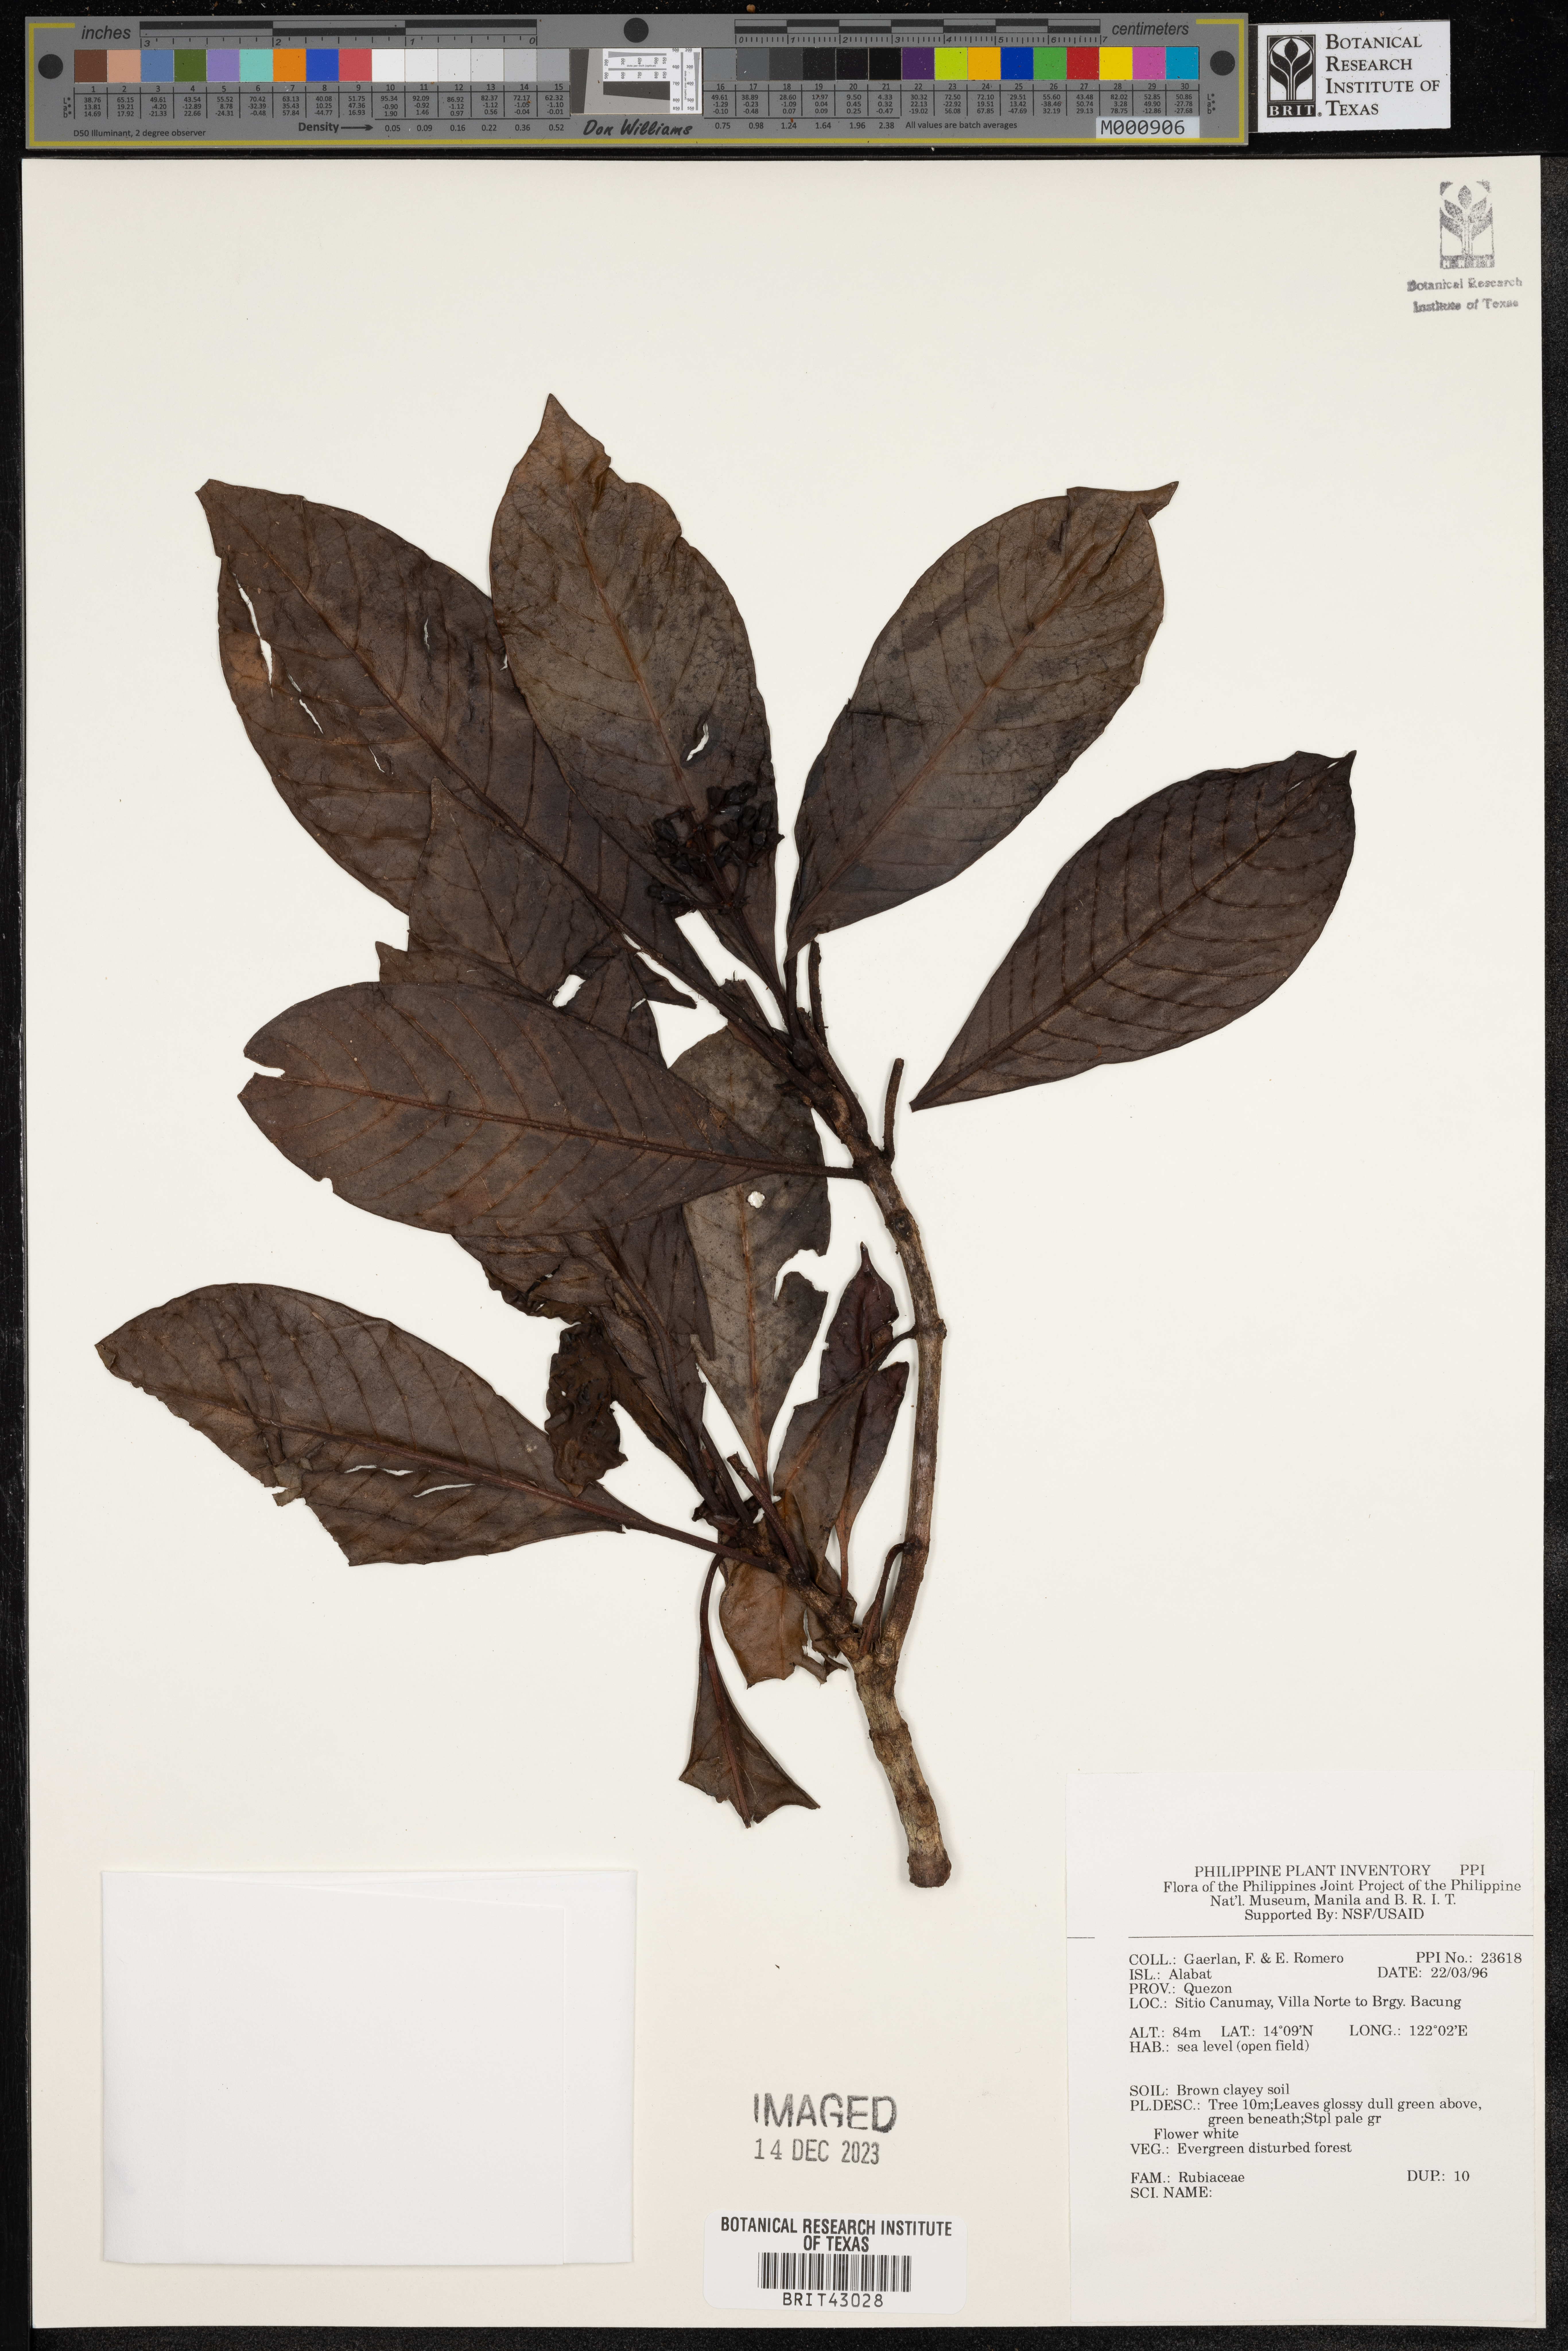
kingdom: Plantae
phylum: Tracheophyta
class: Magnoliopsida
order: Gentianales
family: Rubiaceae
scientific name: Rubiaceae
